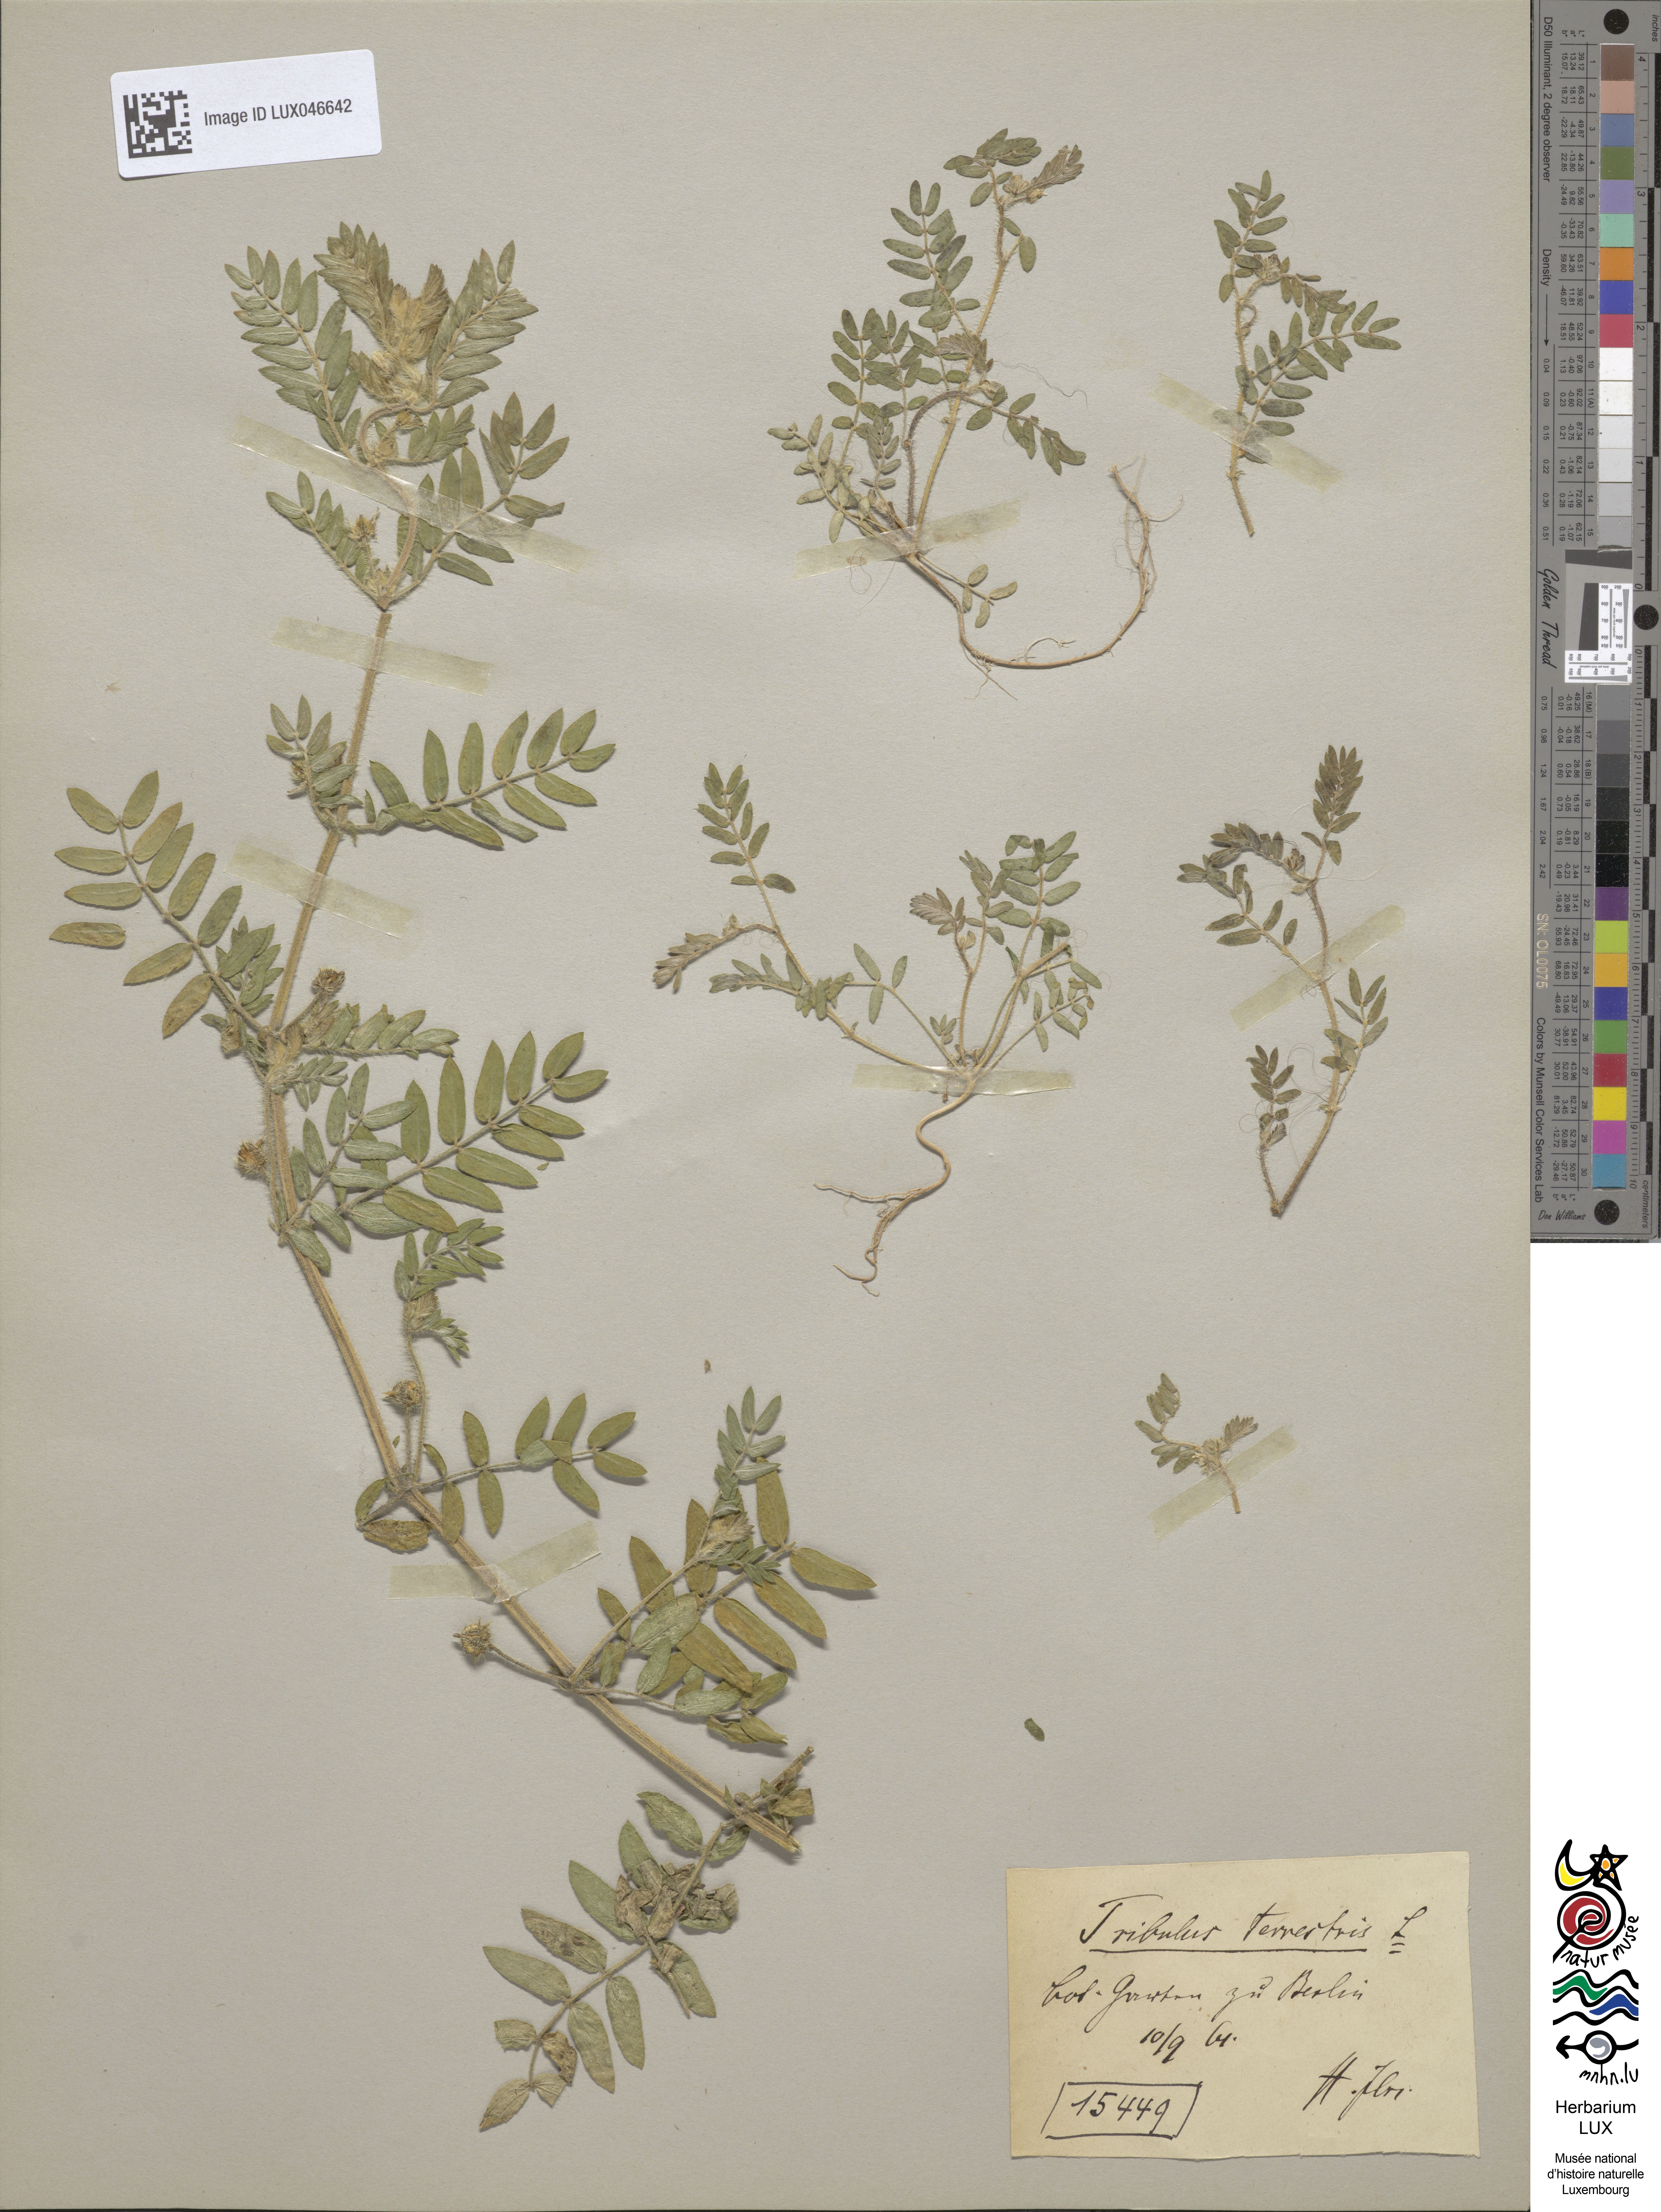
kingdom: Plantae
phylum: Tracheophyta
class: Magnoliopsida
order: Zygophyllales
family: Zygophyllaceae
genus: Tribulus
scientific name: Tribulus terrestris
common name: Puncturevine
